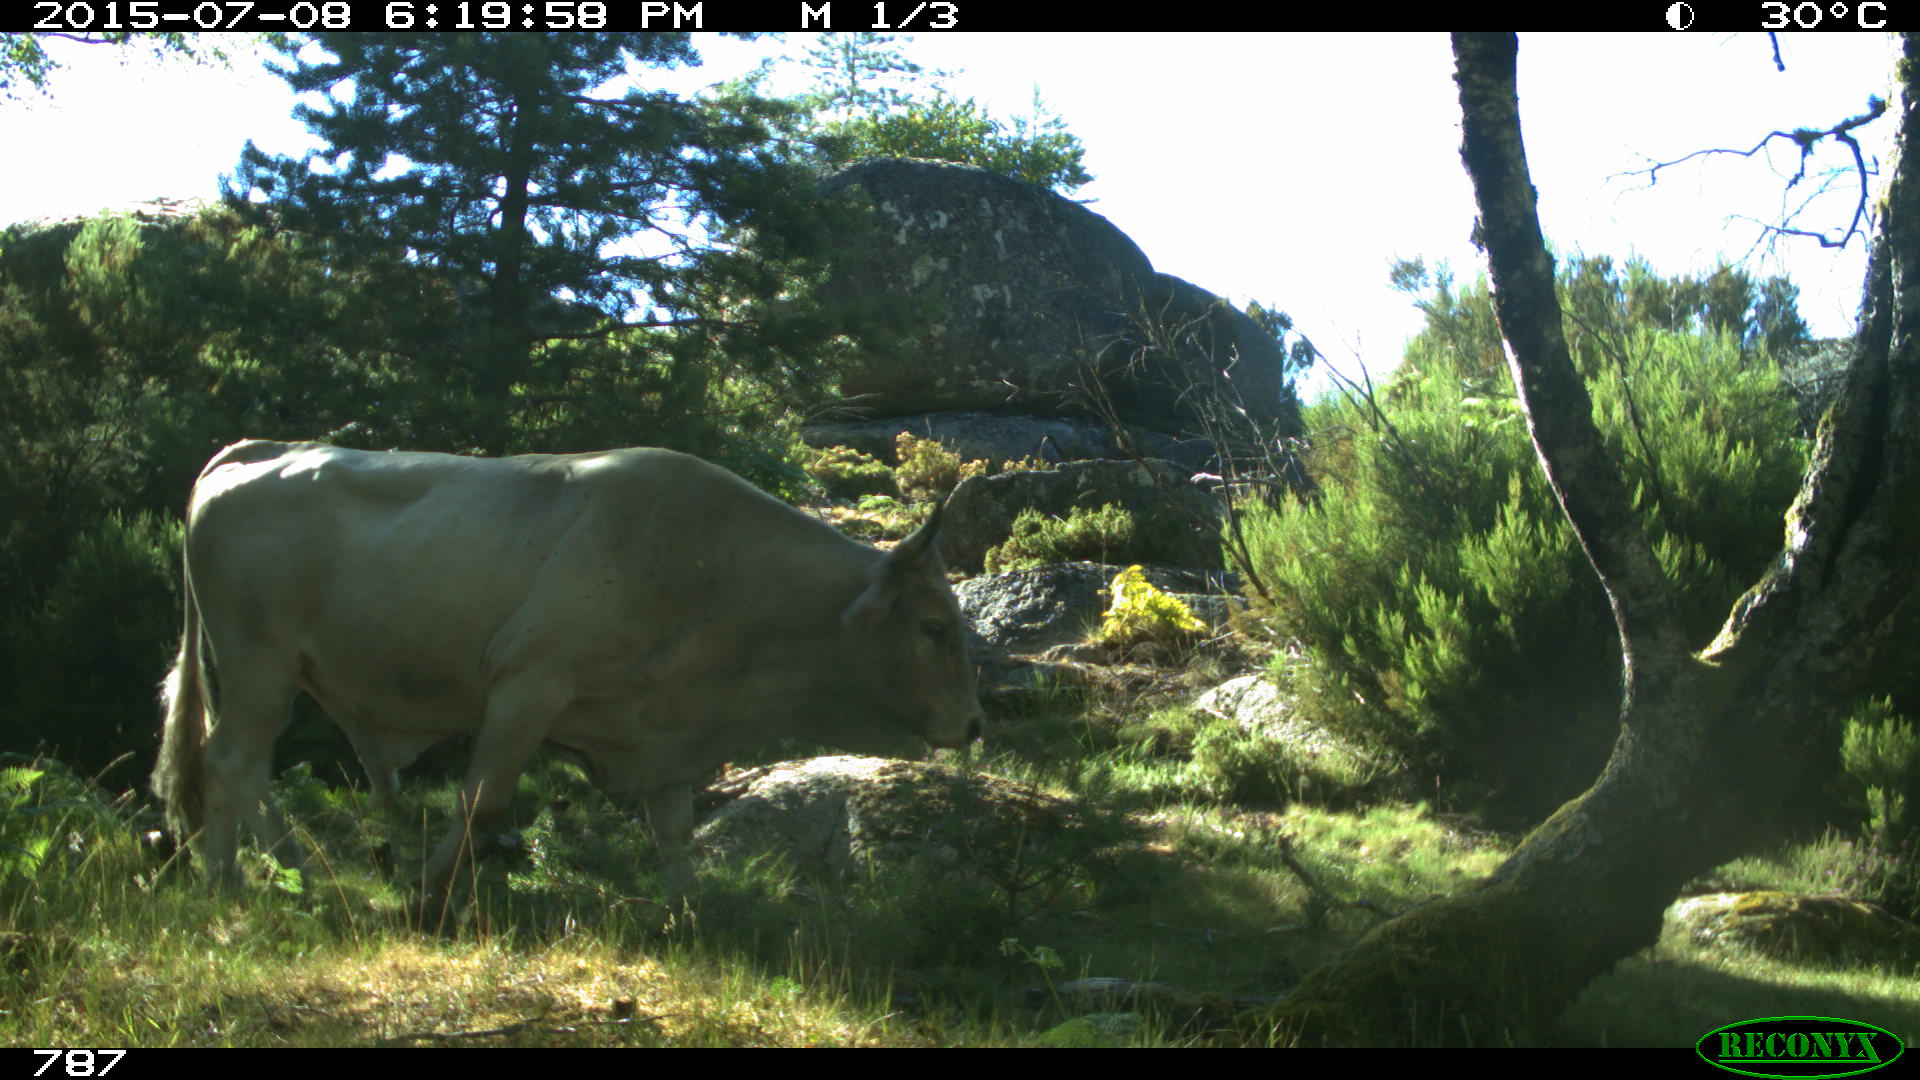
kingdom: Animalia
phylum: Chordata
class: Mammalia
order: Artiodactyla
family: Bovidae
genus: Bos
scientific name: Bos taurus
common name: Domesticated cattle
